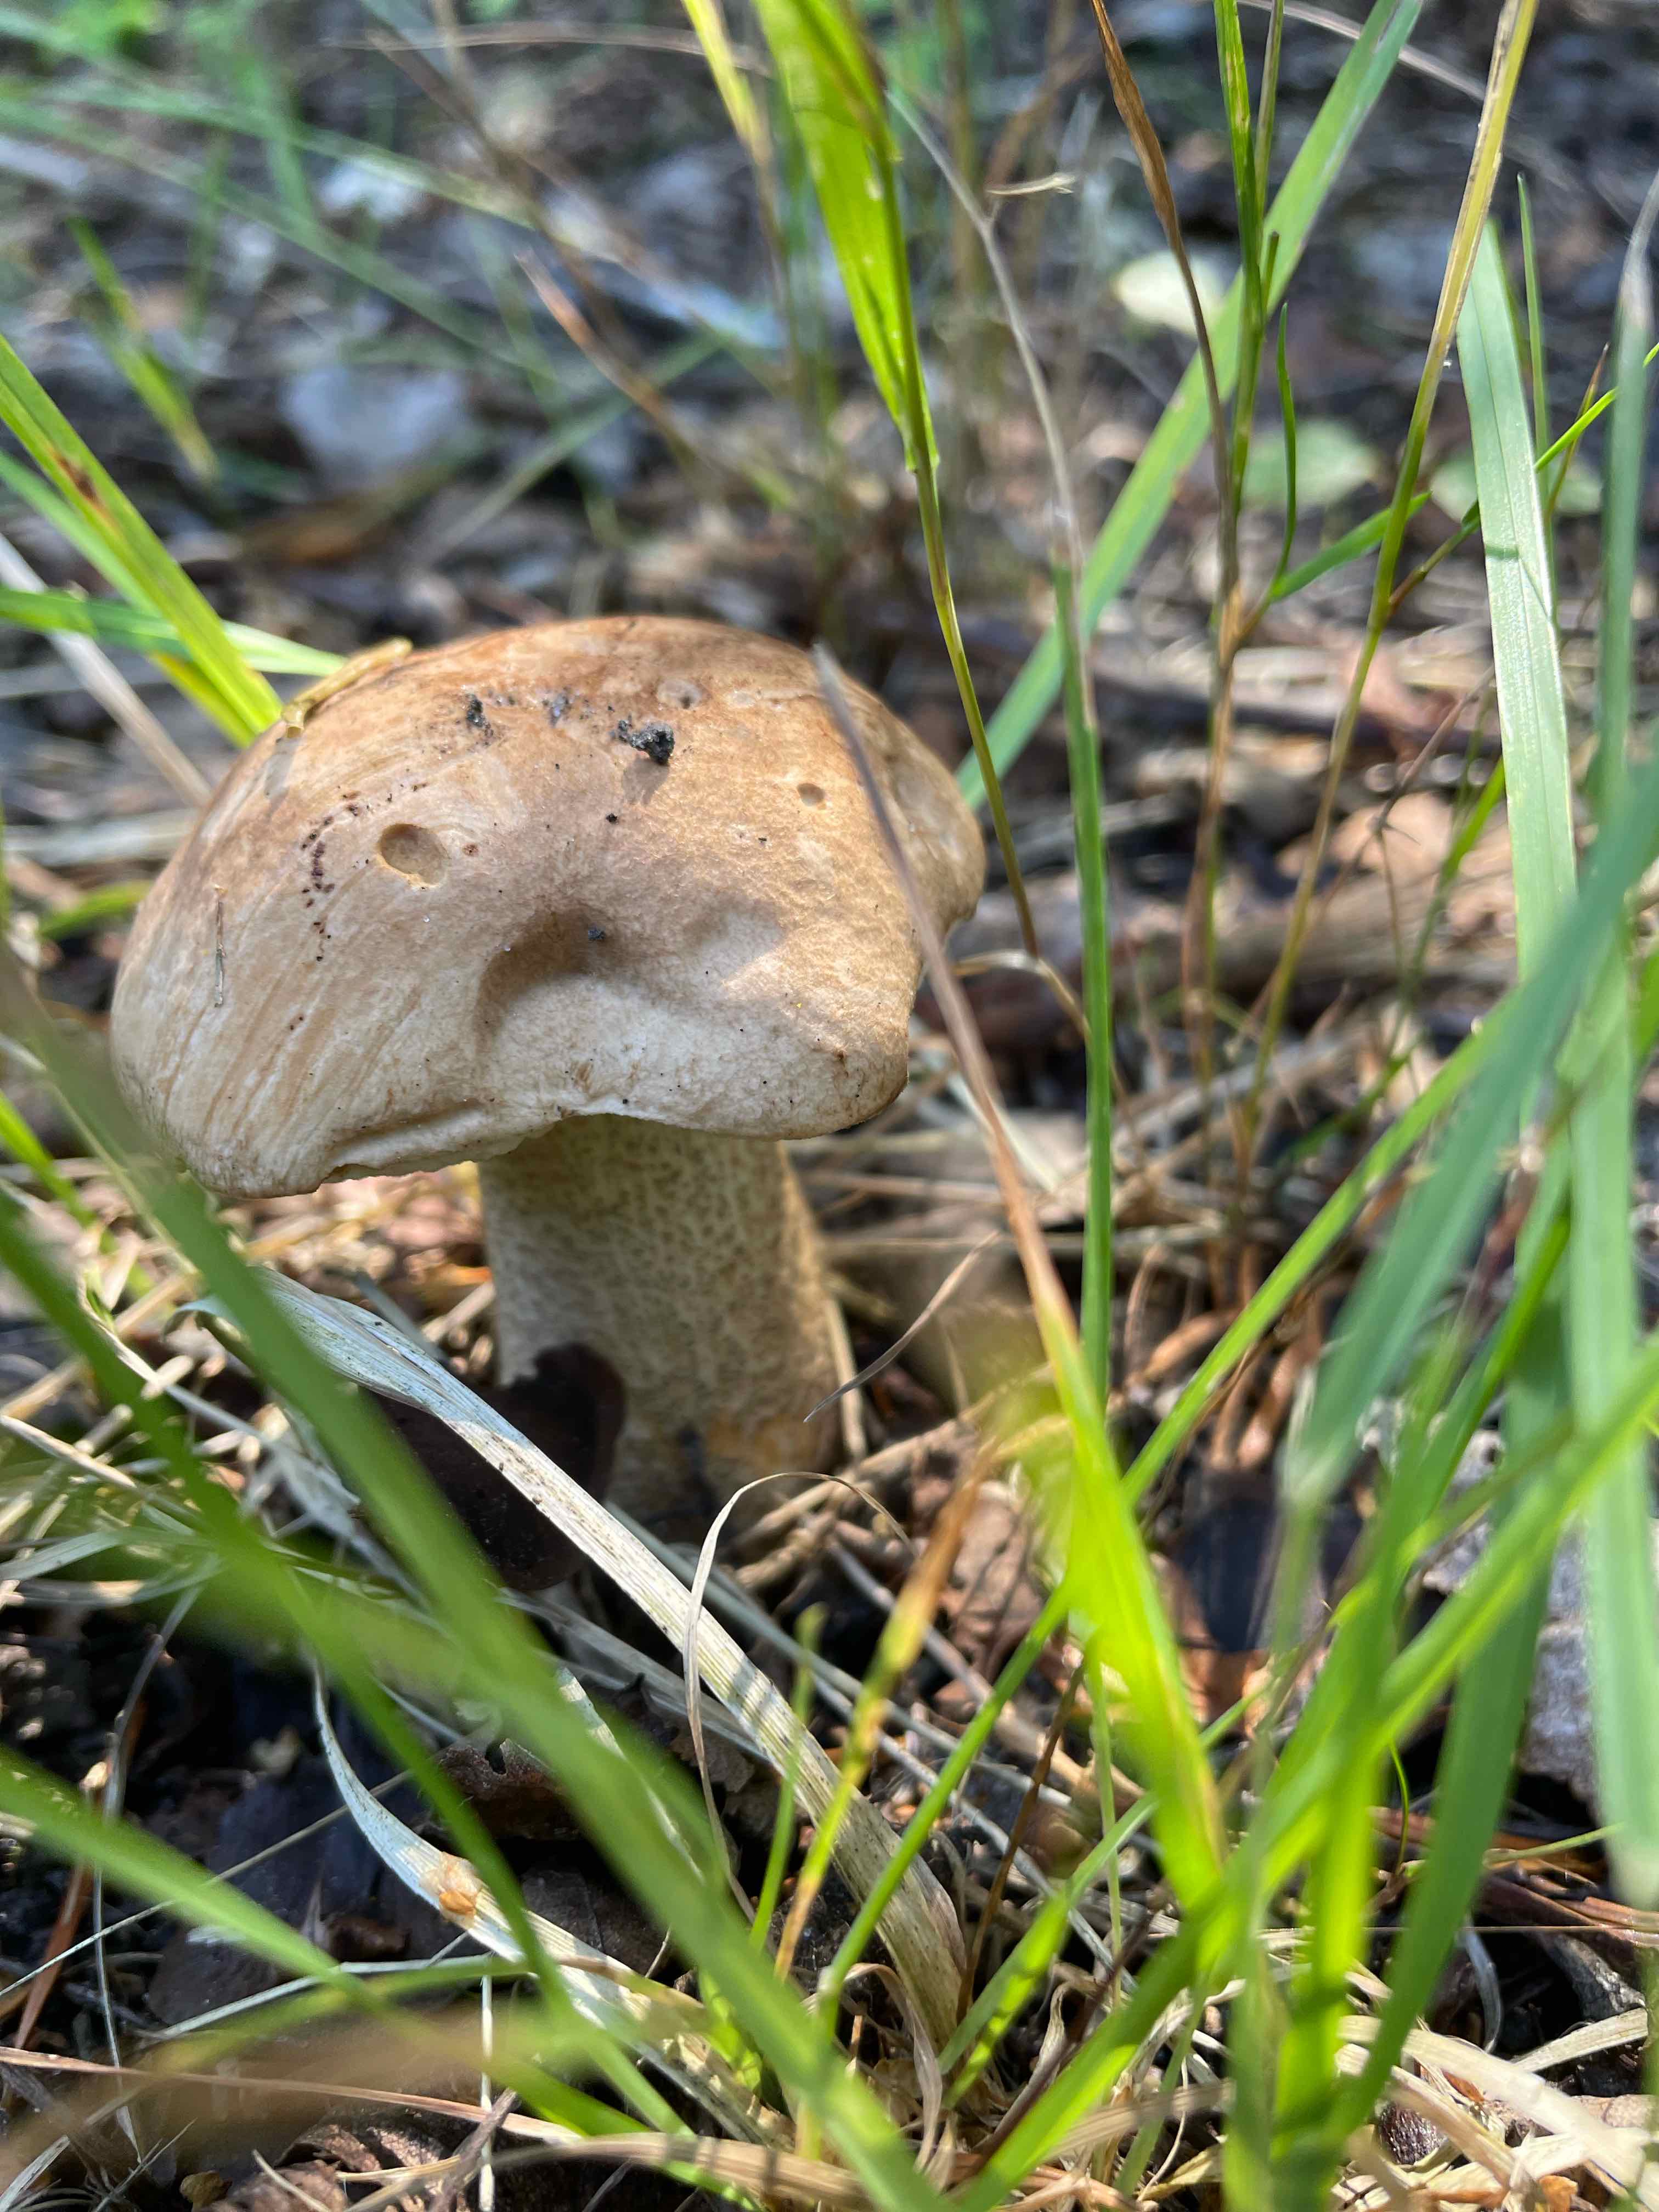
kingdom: Fungi
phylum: Basidiomycota
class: Agaricomycetes
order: Boletales
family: Boletaceae
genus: Leccinum
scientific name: Leccinum
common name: skælrørhat
